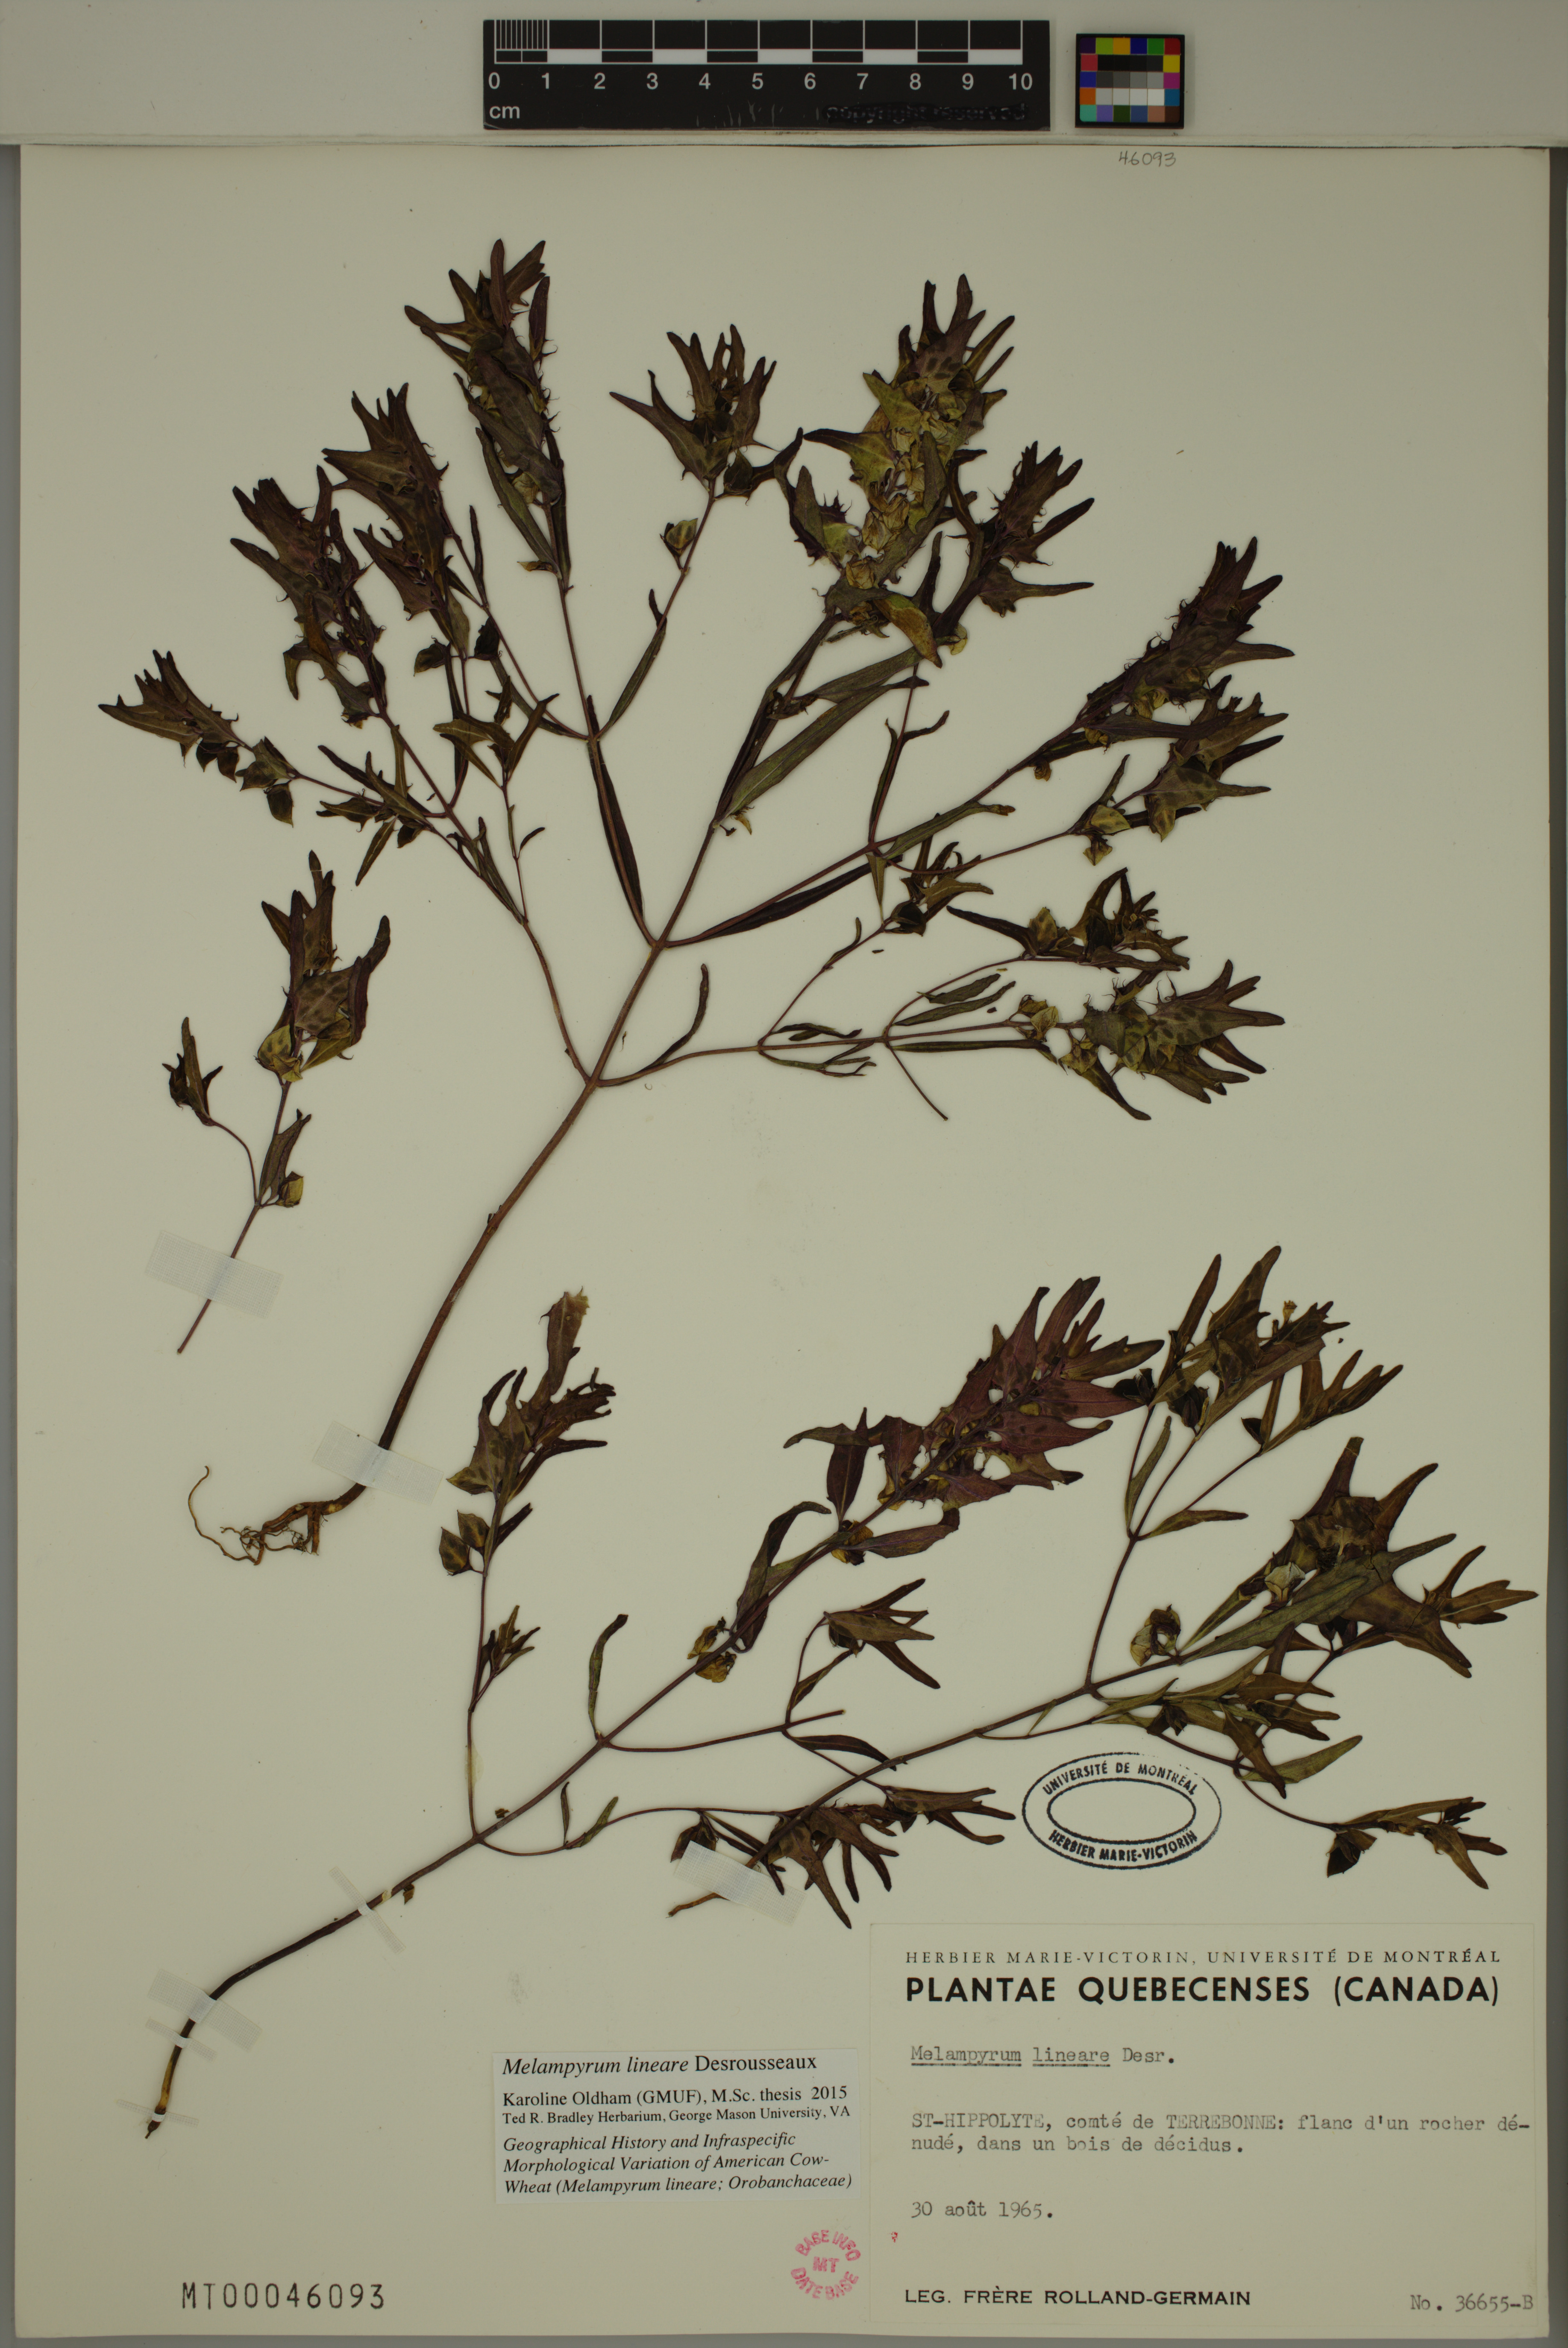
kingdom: Plantae
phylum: Tracheophyta
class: Magnoliopsida
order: Lamiales
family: Orobanchaceae
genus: Melampyrum
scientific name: Melampyrum lineare
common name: American cow-wheat
